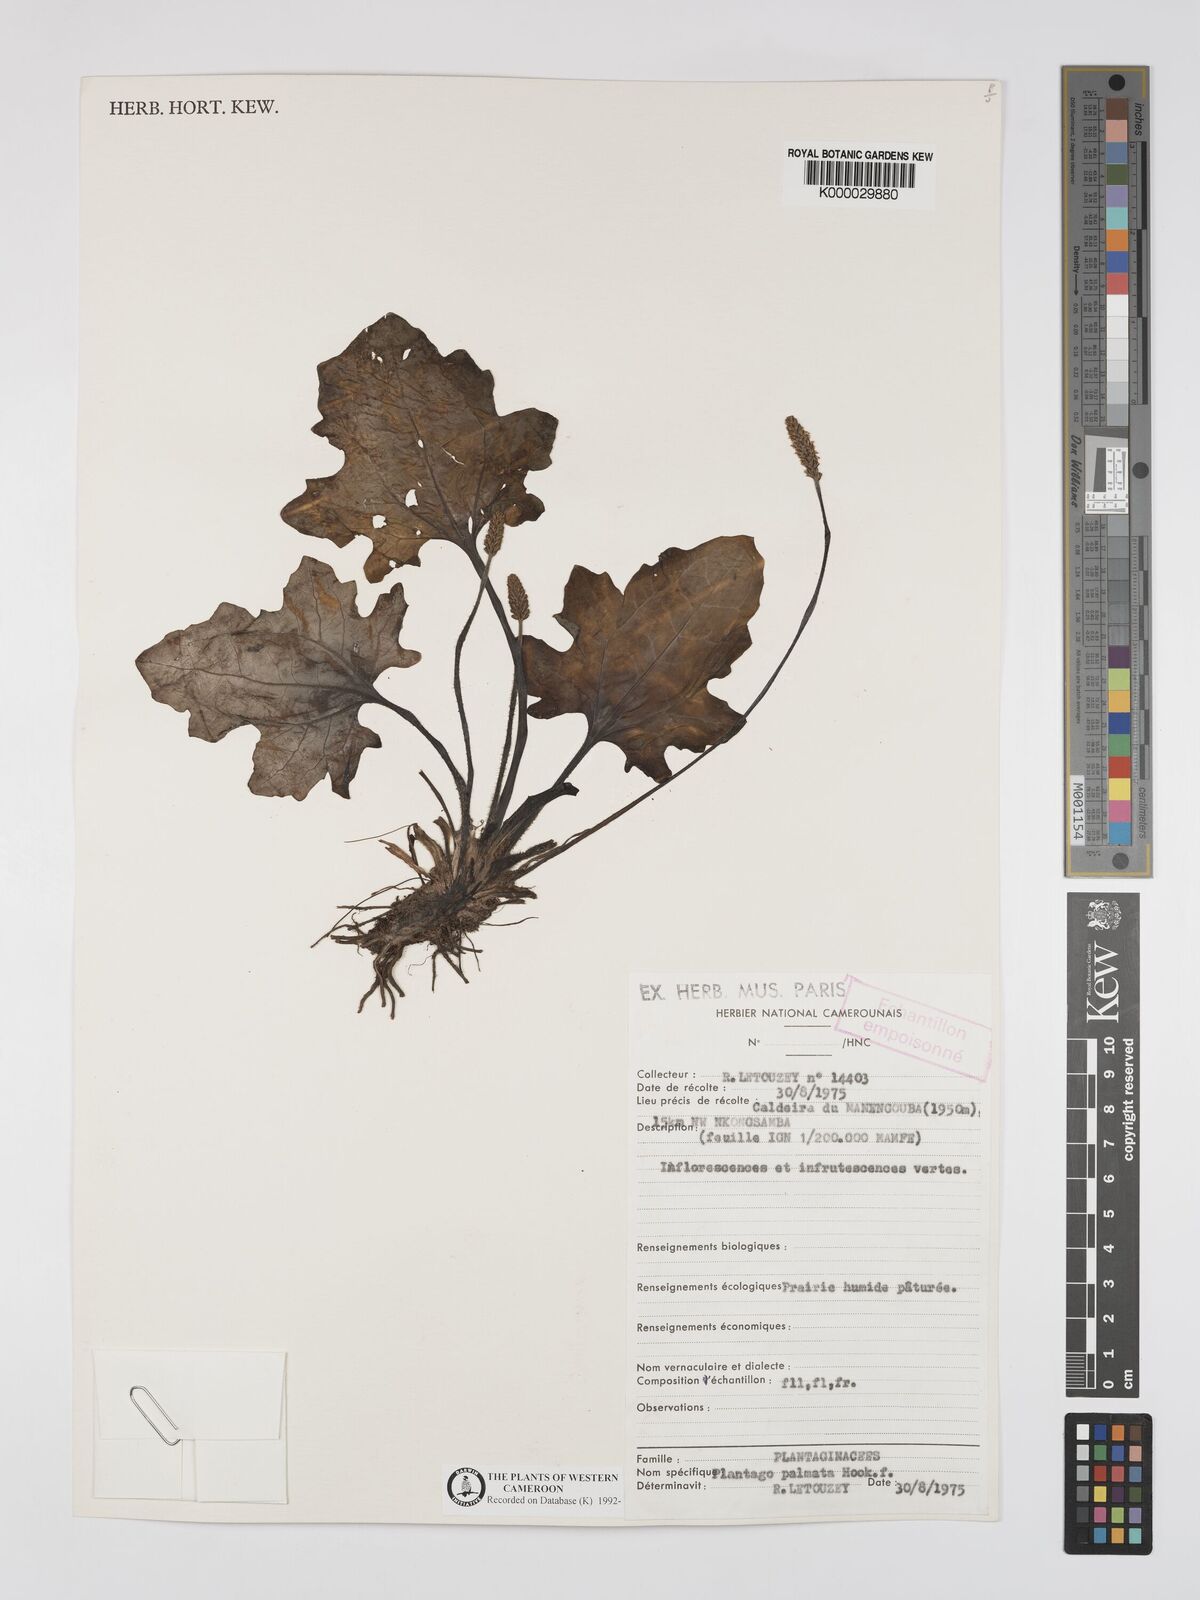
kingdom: Plantae
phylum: Tracheophyta
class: Magnoliopsida
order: Lamiales
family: Plantaginaceae
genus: Plantago
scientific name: Plantago palmata
